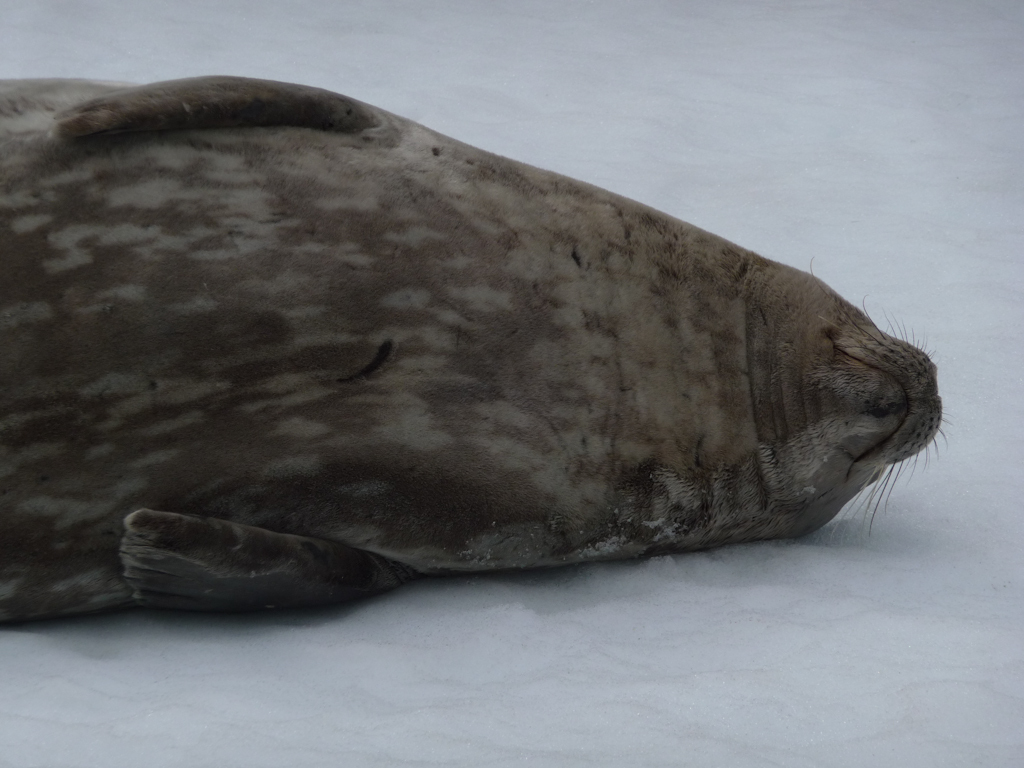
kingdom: Animalia
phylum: Chordata
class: Mammalia
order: Carnivora
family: Phocidae
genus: Leptonychotes
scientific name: Leptonychotes weddellii
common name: Weddell Seal
